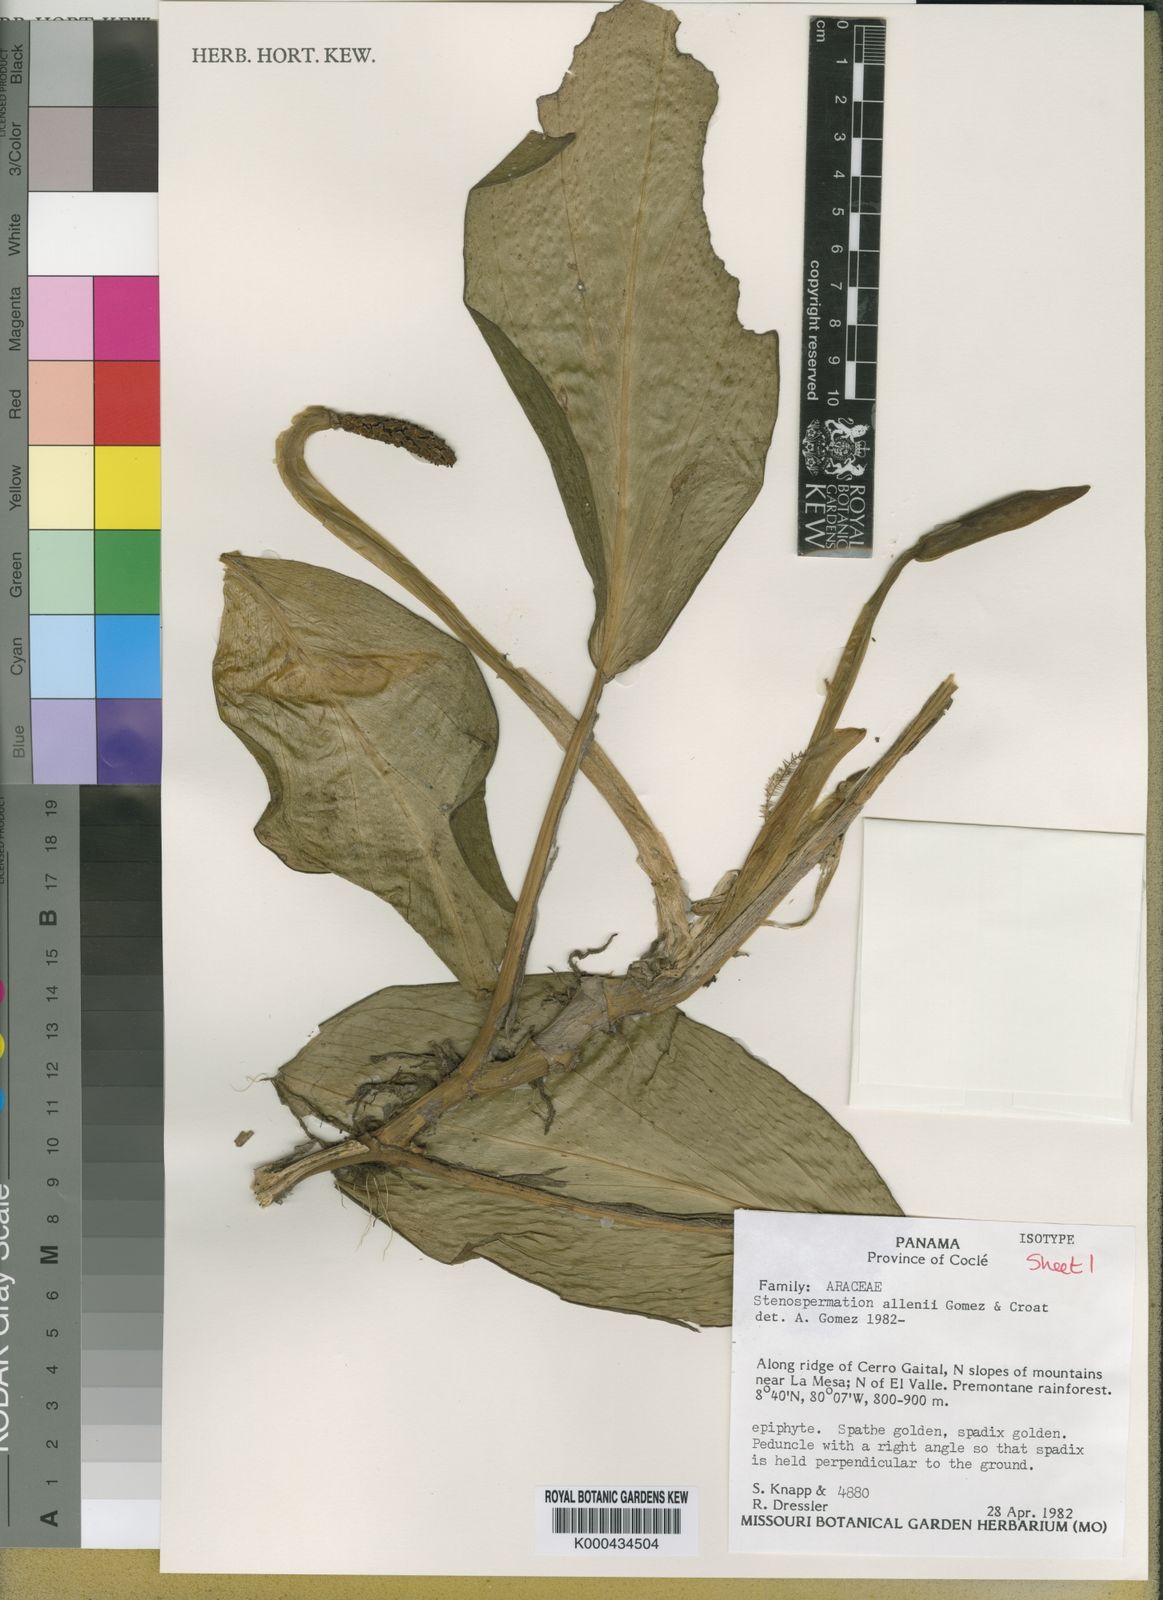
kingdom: Plantae
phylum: Tracheophyta
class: Liliopsida
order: Alismatales
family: Araceae
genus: Stenospermation
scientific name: Stenospermation
